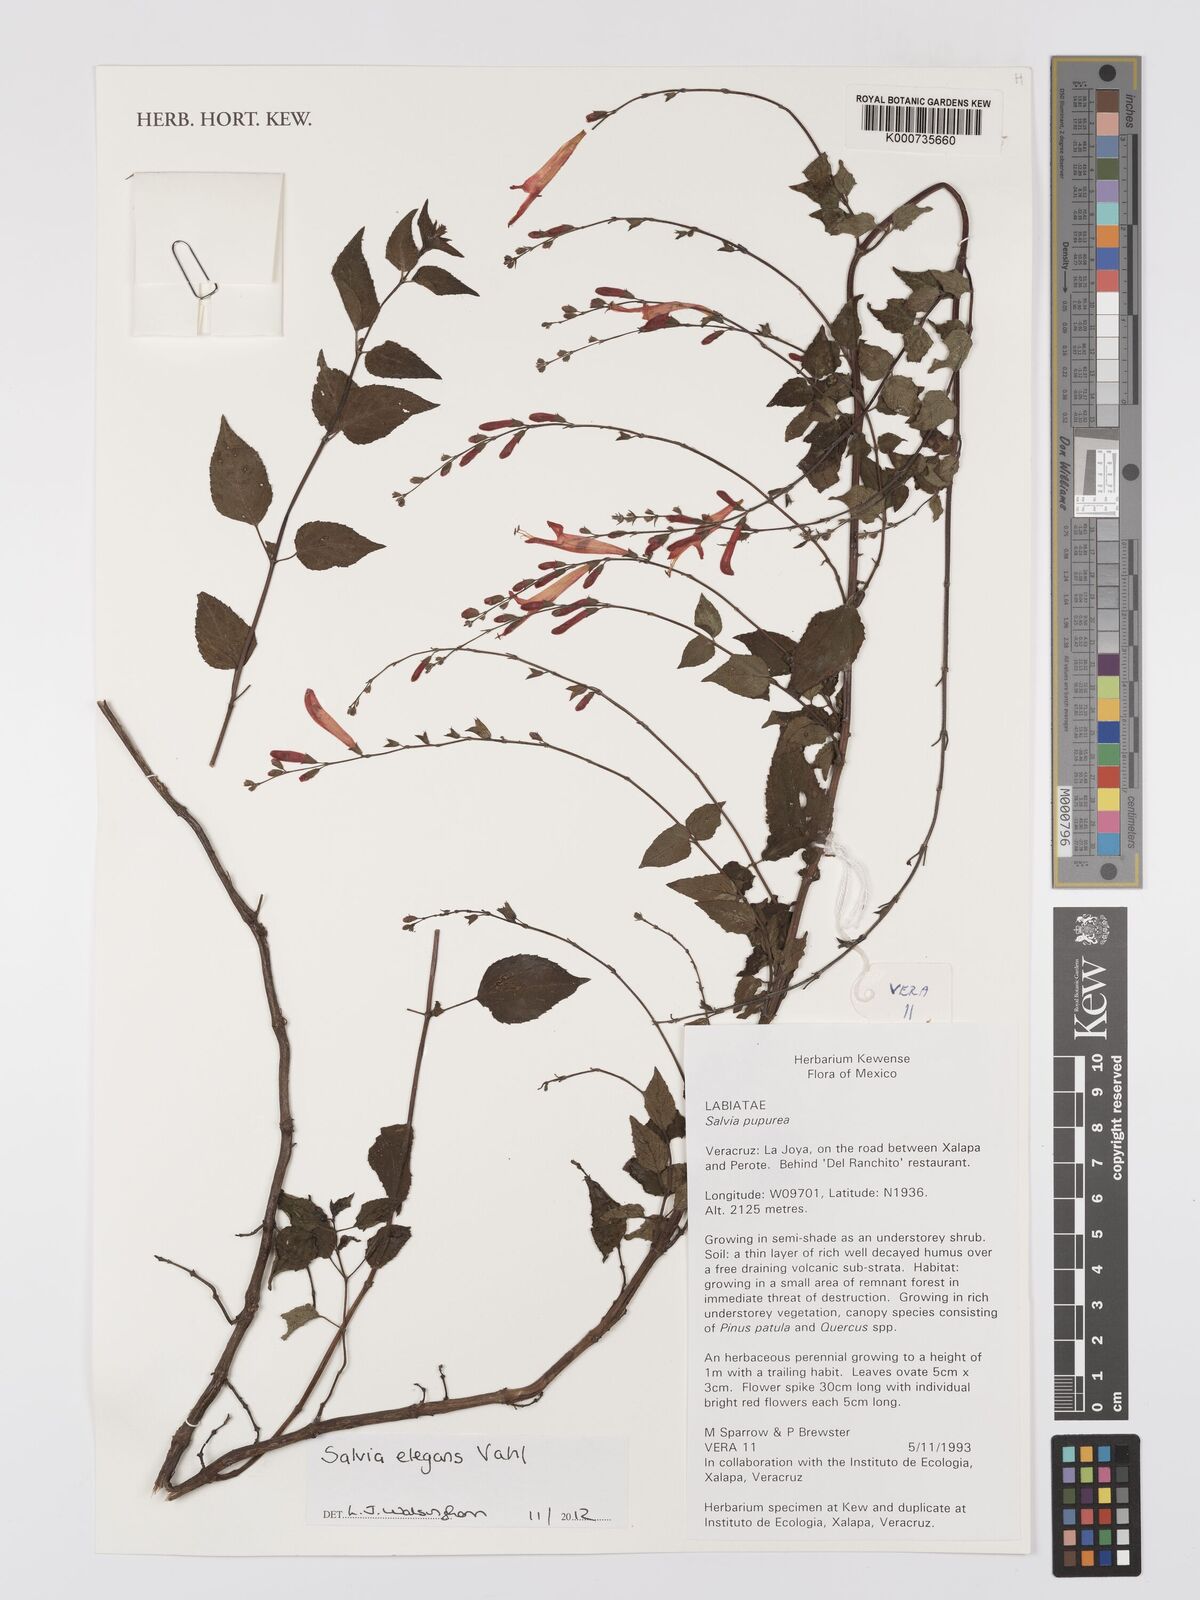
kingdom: Plantae
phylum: Tracheophyta
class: Magnoliopsida
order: Lamiales
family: Lamiaceae
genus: Salvia
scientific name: Salvia elegans
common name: Pineapple sage
